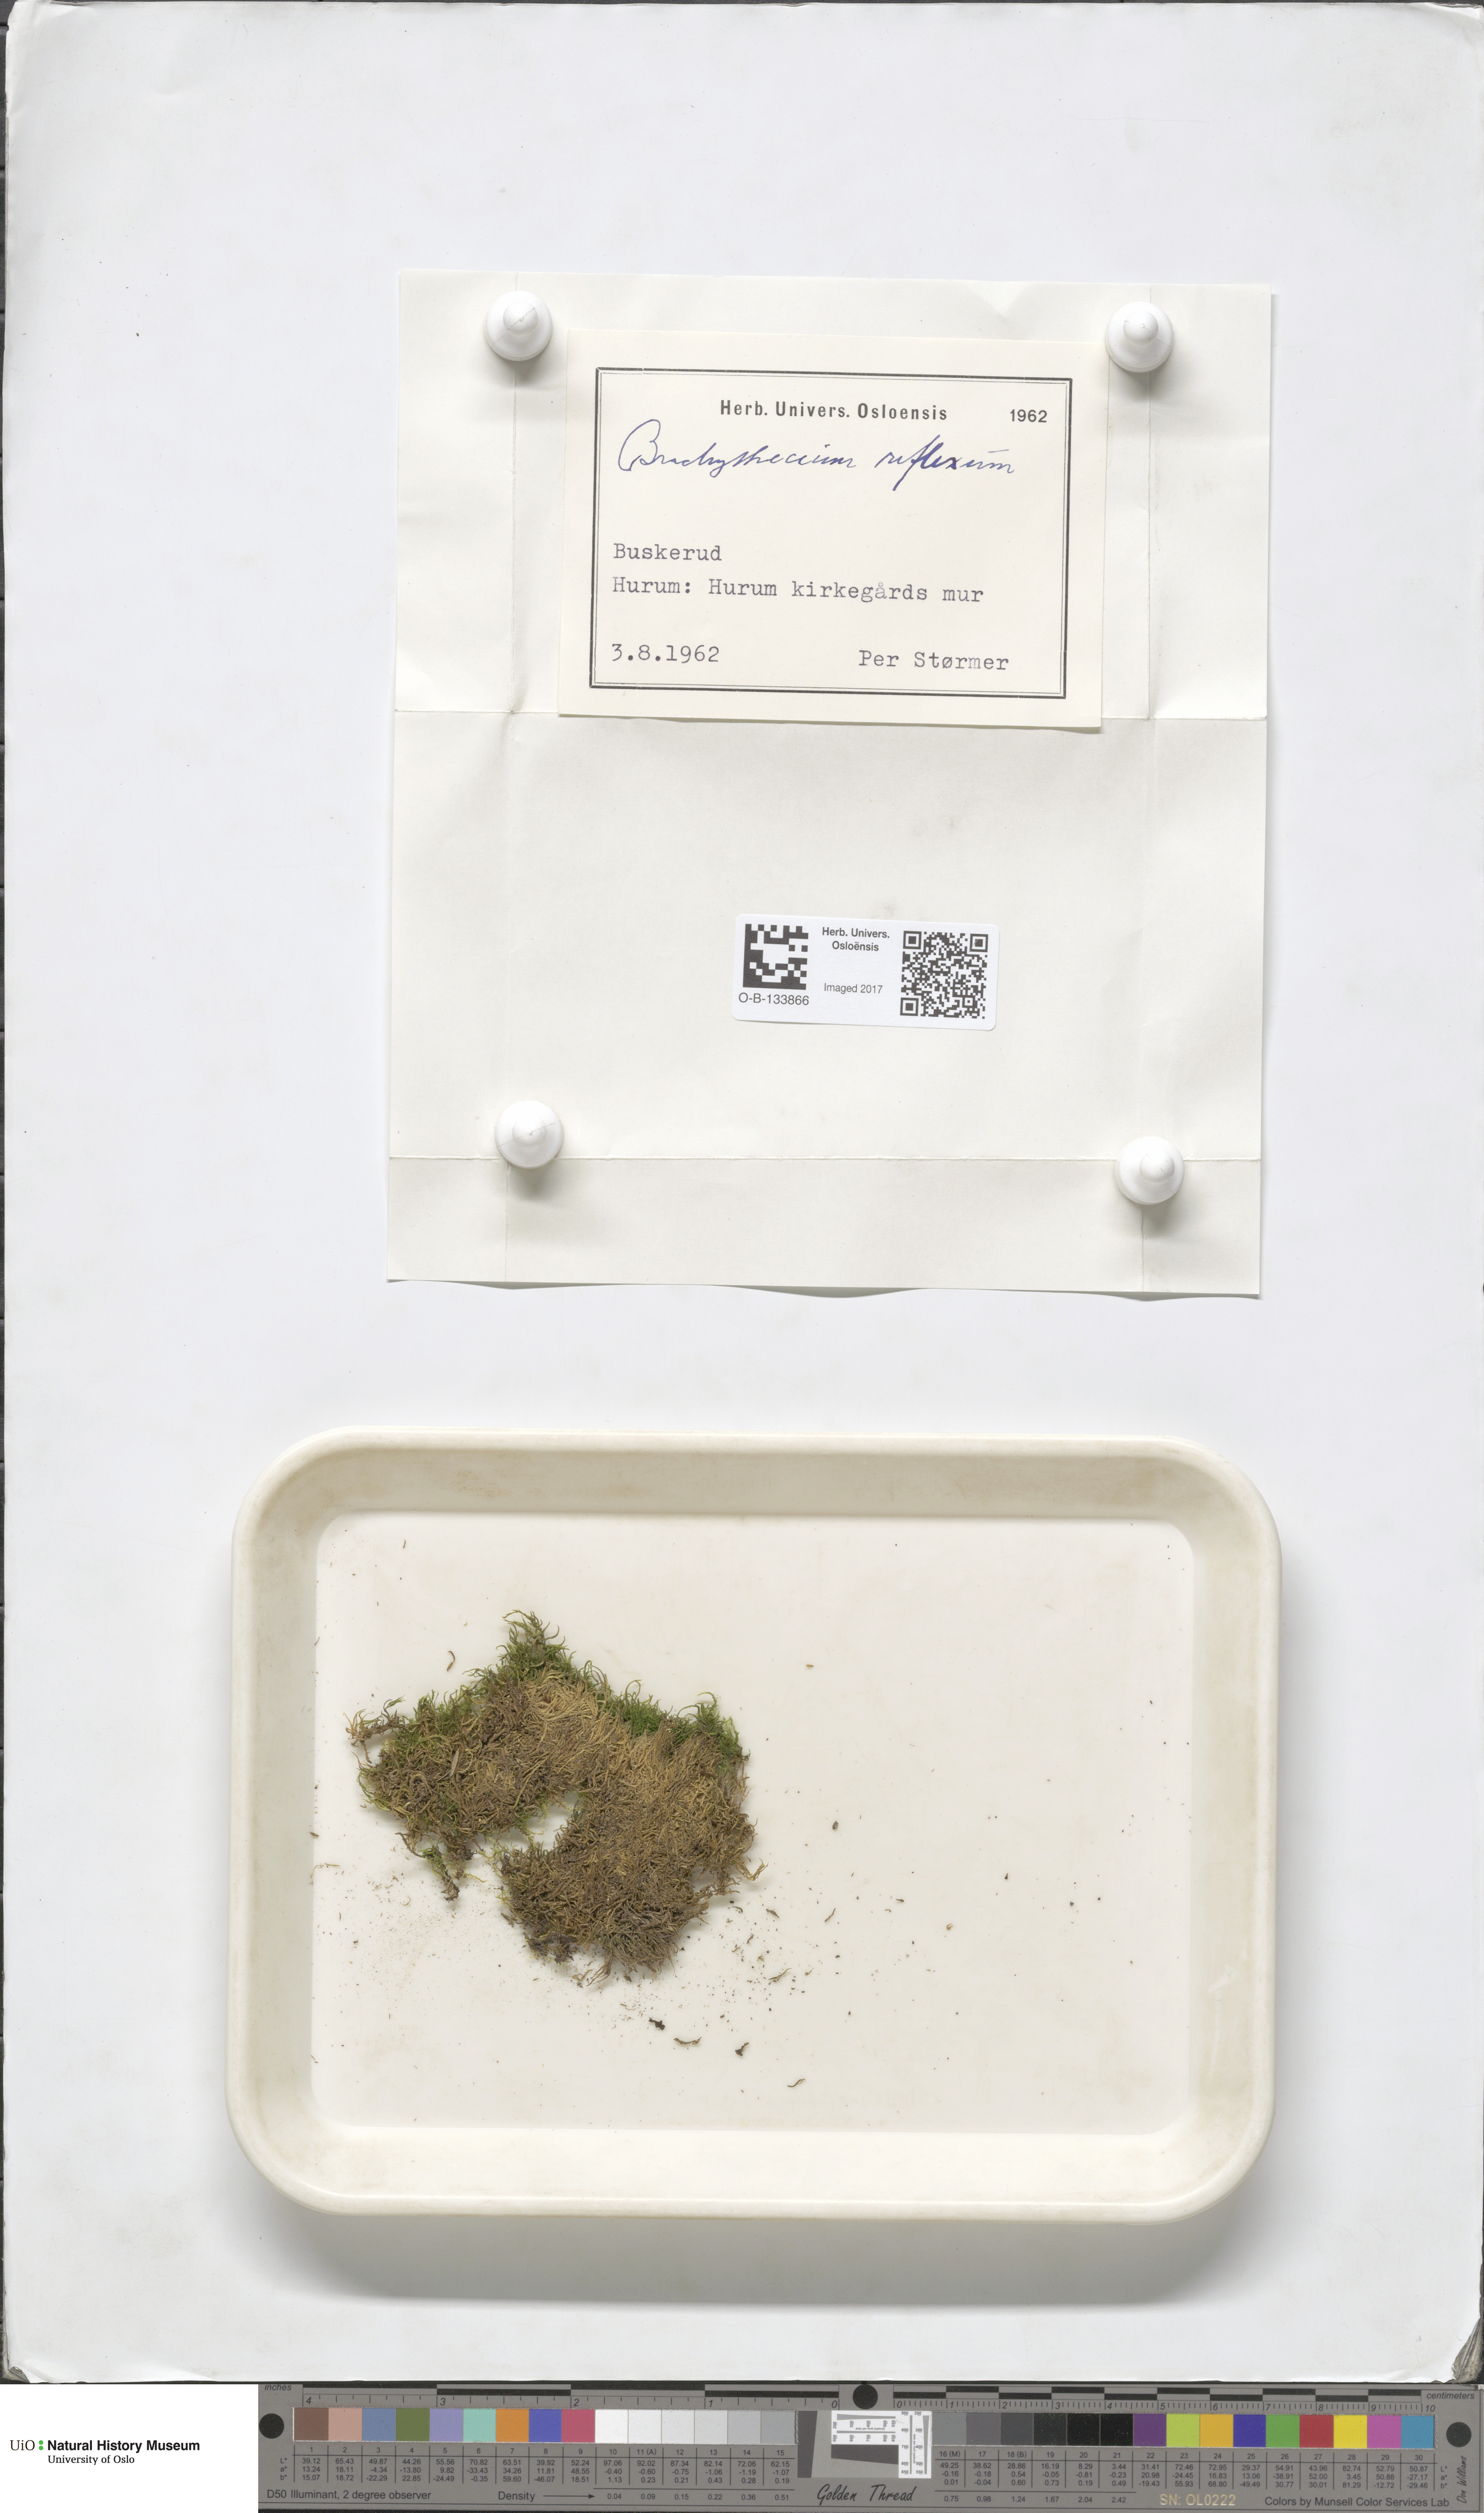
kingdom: Plantae
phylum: Bryophyta
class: Bryopsida
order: Hypnales
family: Brachytheciaceae
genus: Sciuro-hypnum
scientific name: Sciuro-hypnum reflexum
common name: Reflexed feather-moss
